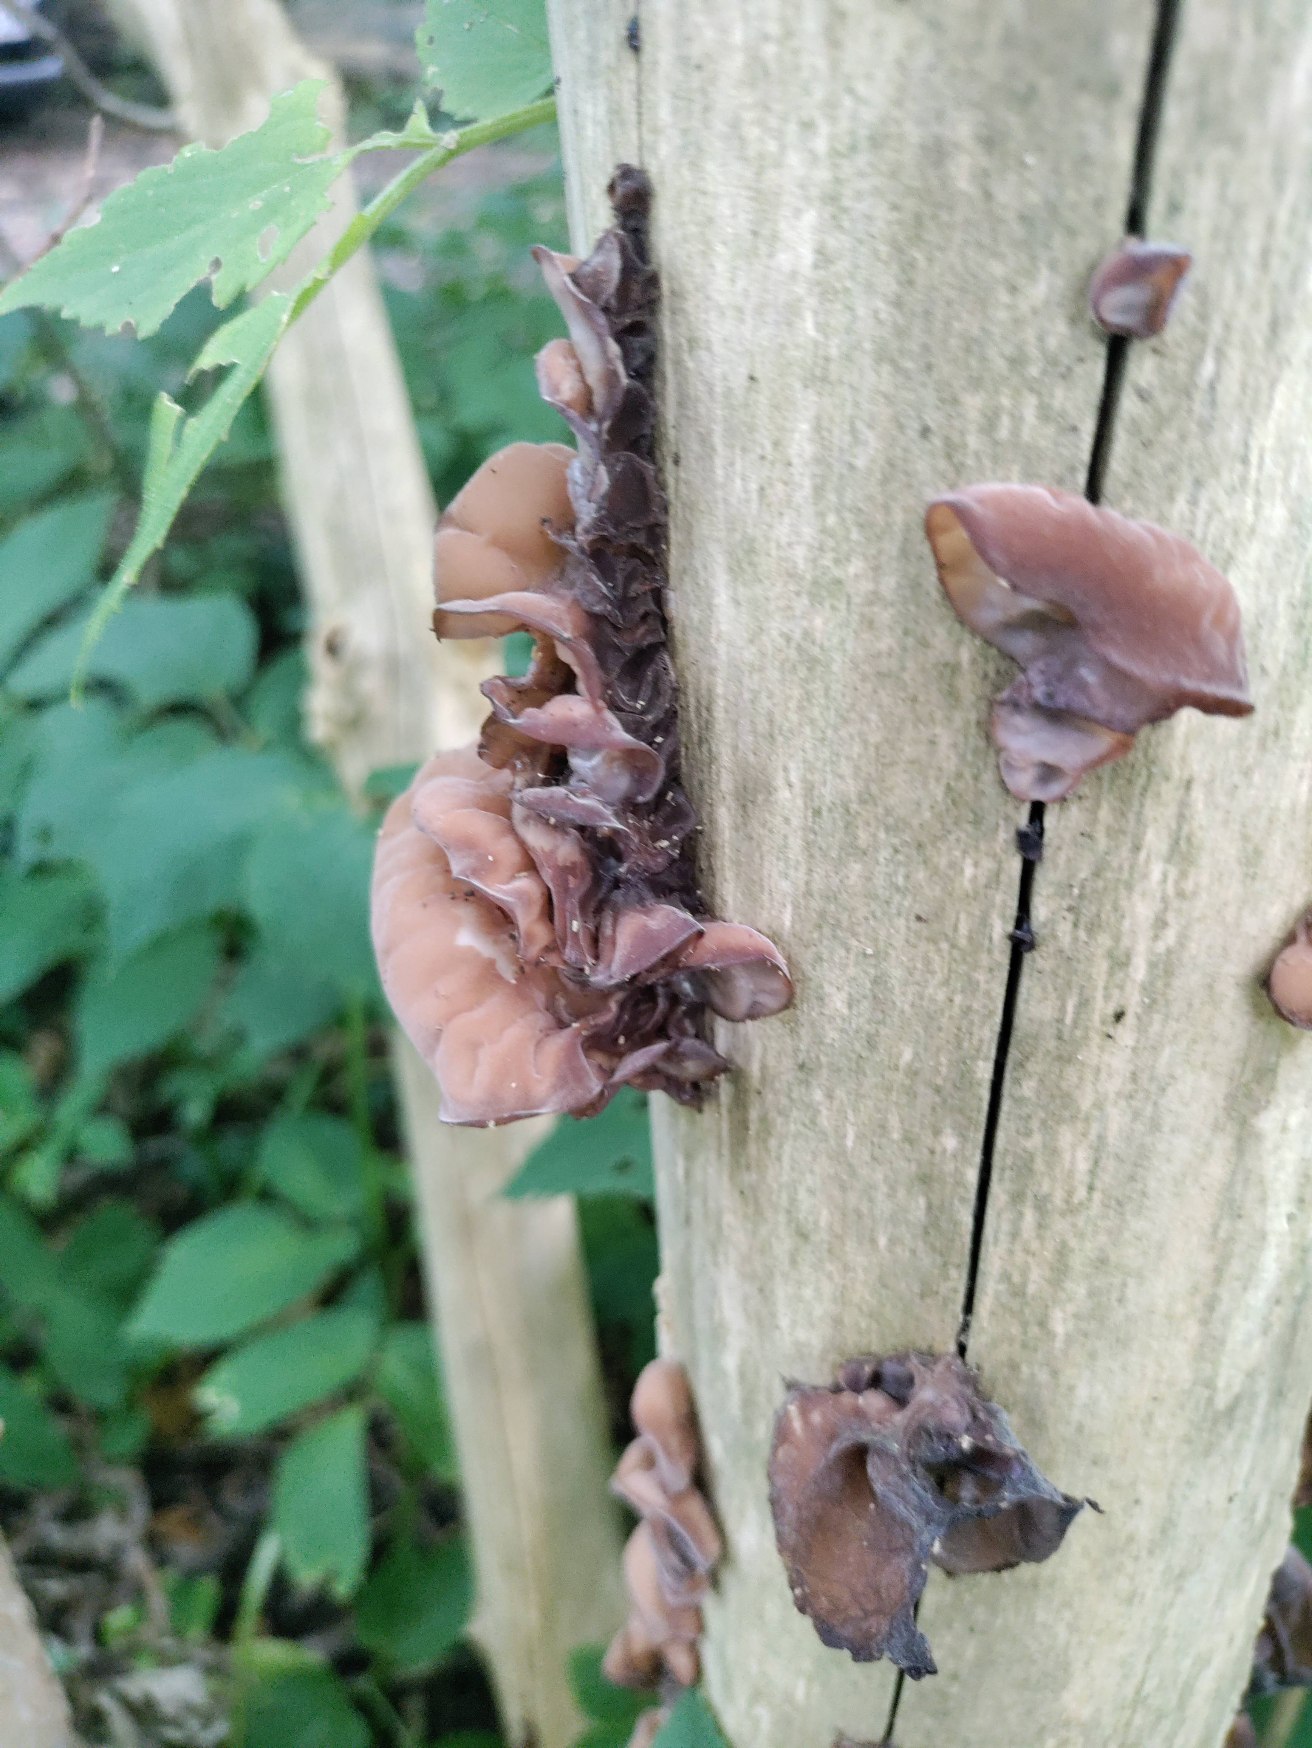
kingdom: Fungi
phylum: Basidiomycota
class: Agaricomycetes
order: Auriculariales
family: Auriculariaceae
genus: Auricularia
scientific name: Auricularia auricula-judae
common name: Almindelig judasøre
